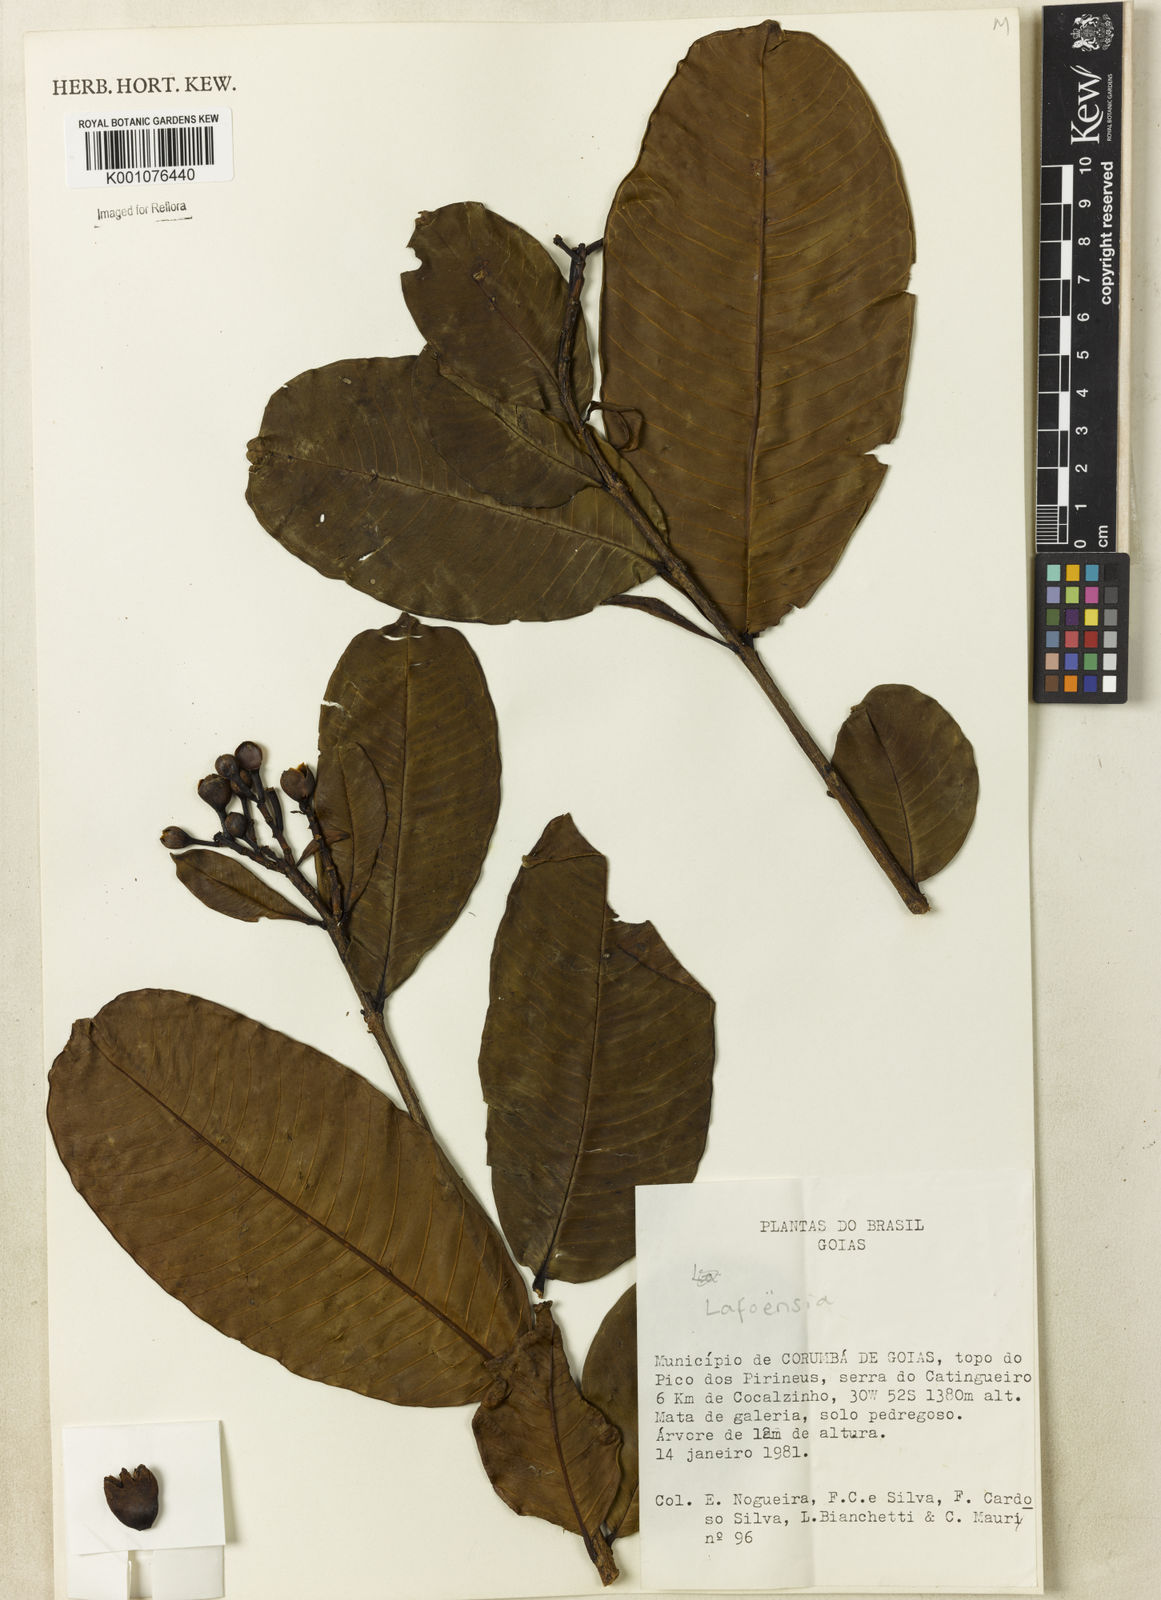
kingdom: Plantae
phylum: Tracheophyta
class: Magnoliopsida
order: Myrtales
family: Lythraceae
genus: Lafoensia
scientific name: Lafoensia
